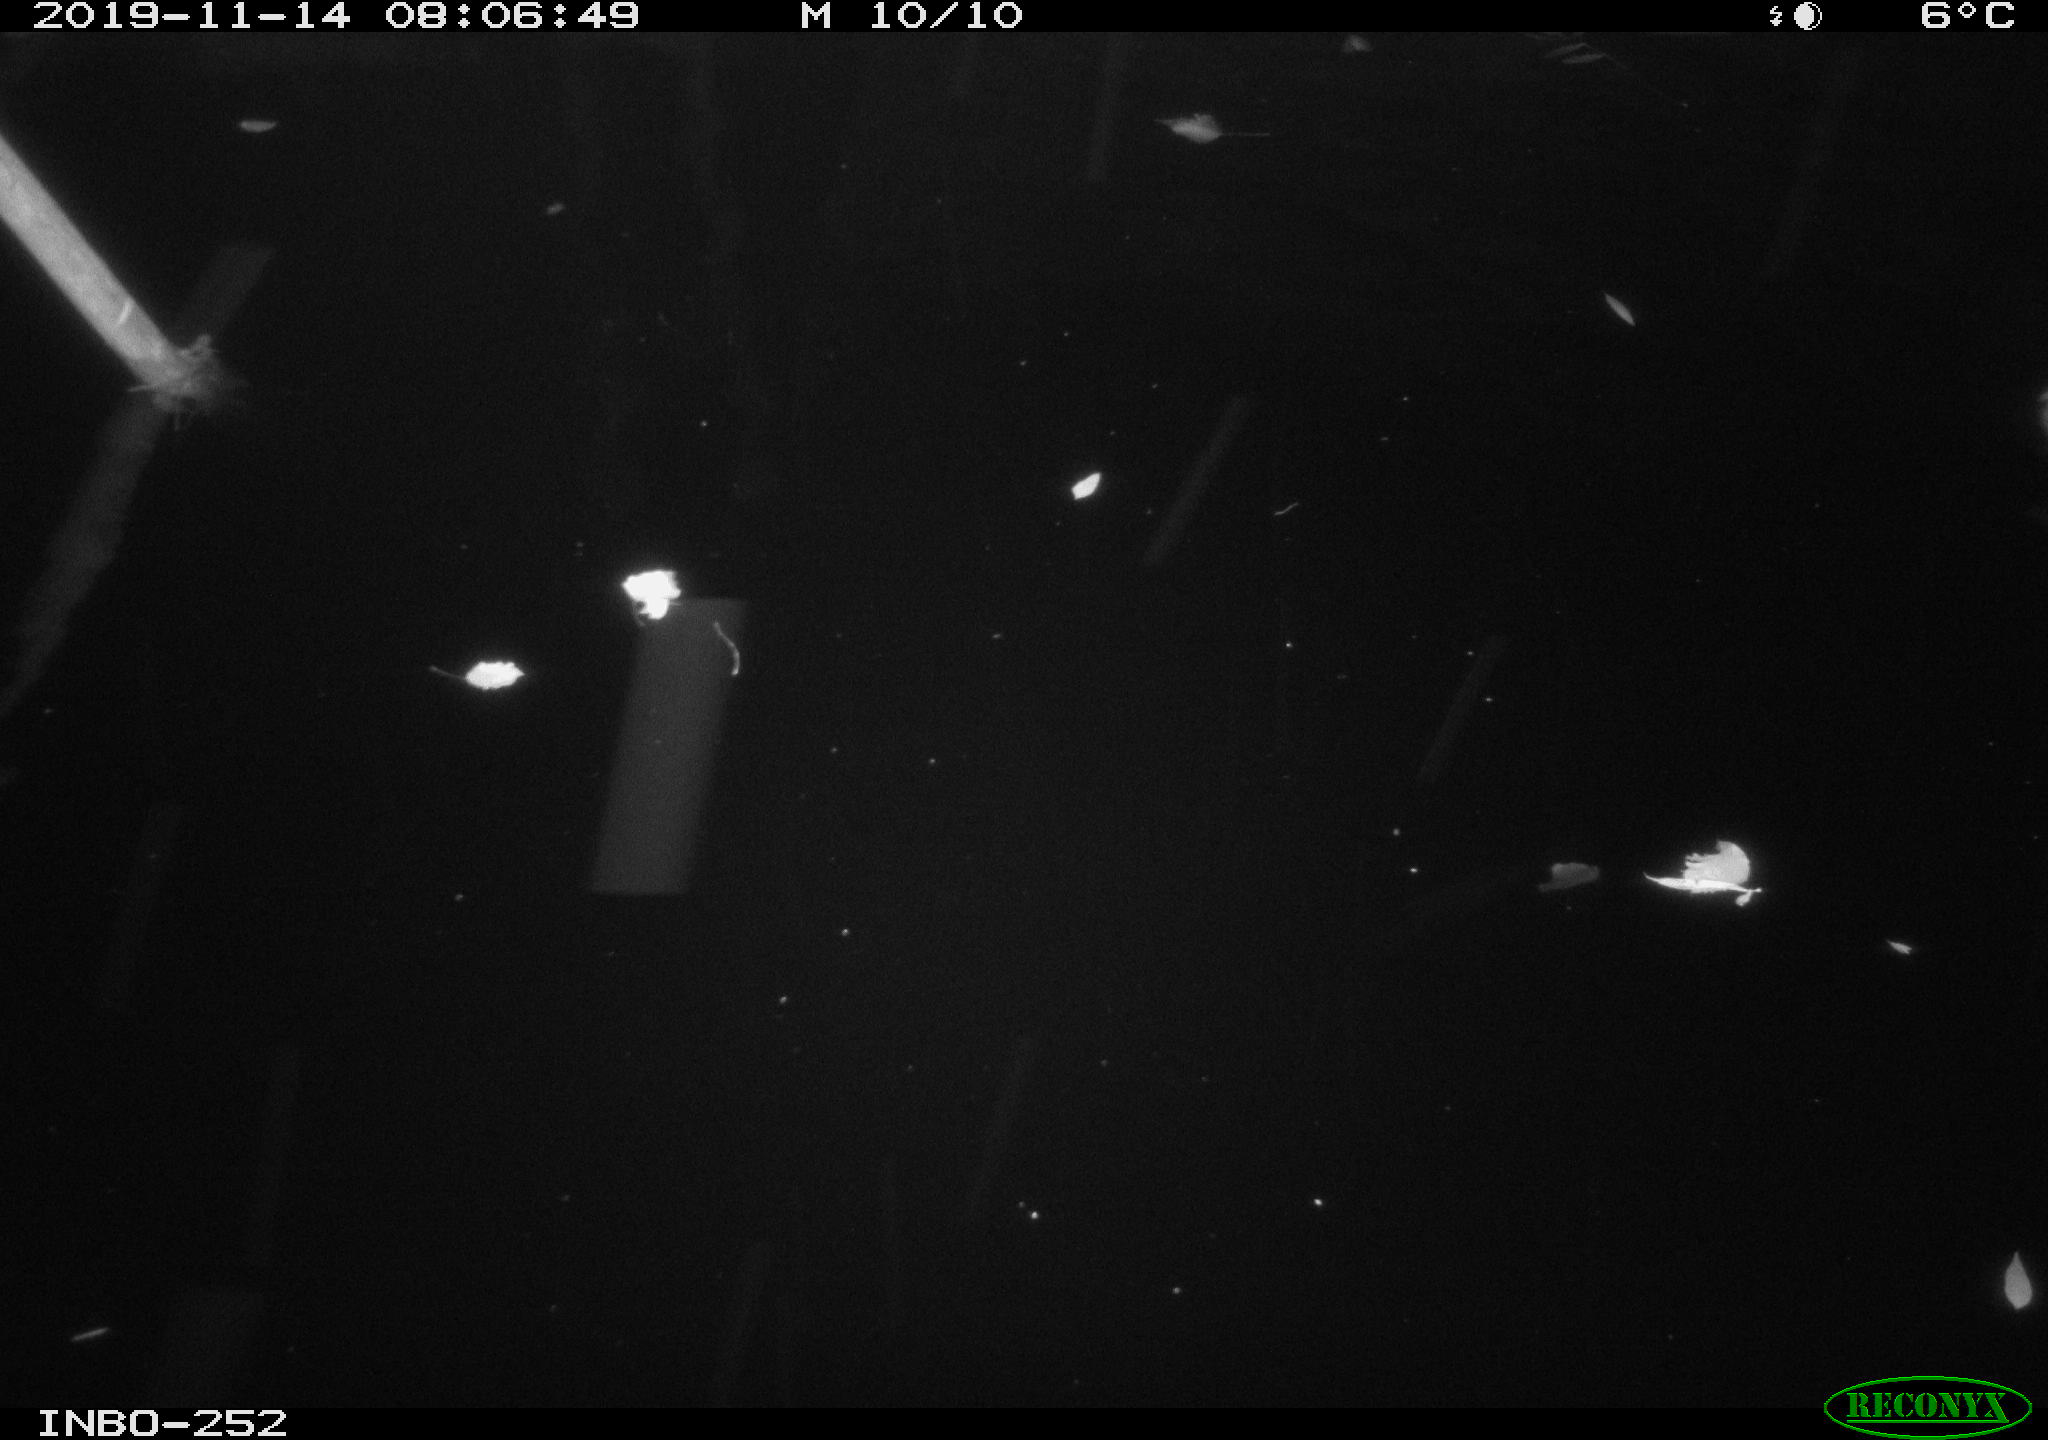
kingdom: Animalia
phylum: Chordata
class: Aves
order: Anseriformes
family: Anatidae
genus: Anas
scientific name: Anas platyrhynchos
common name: Mallard
